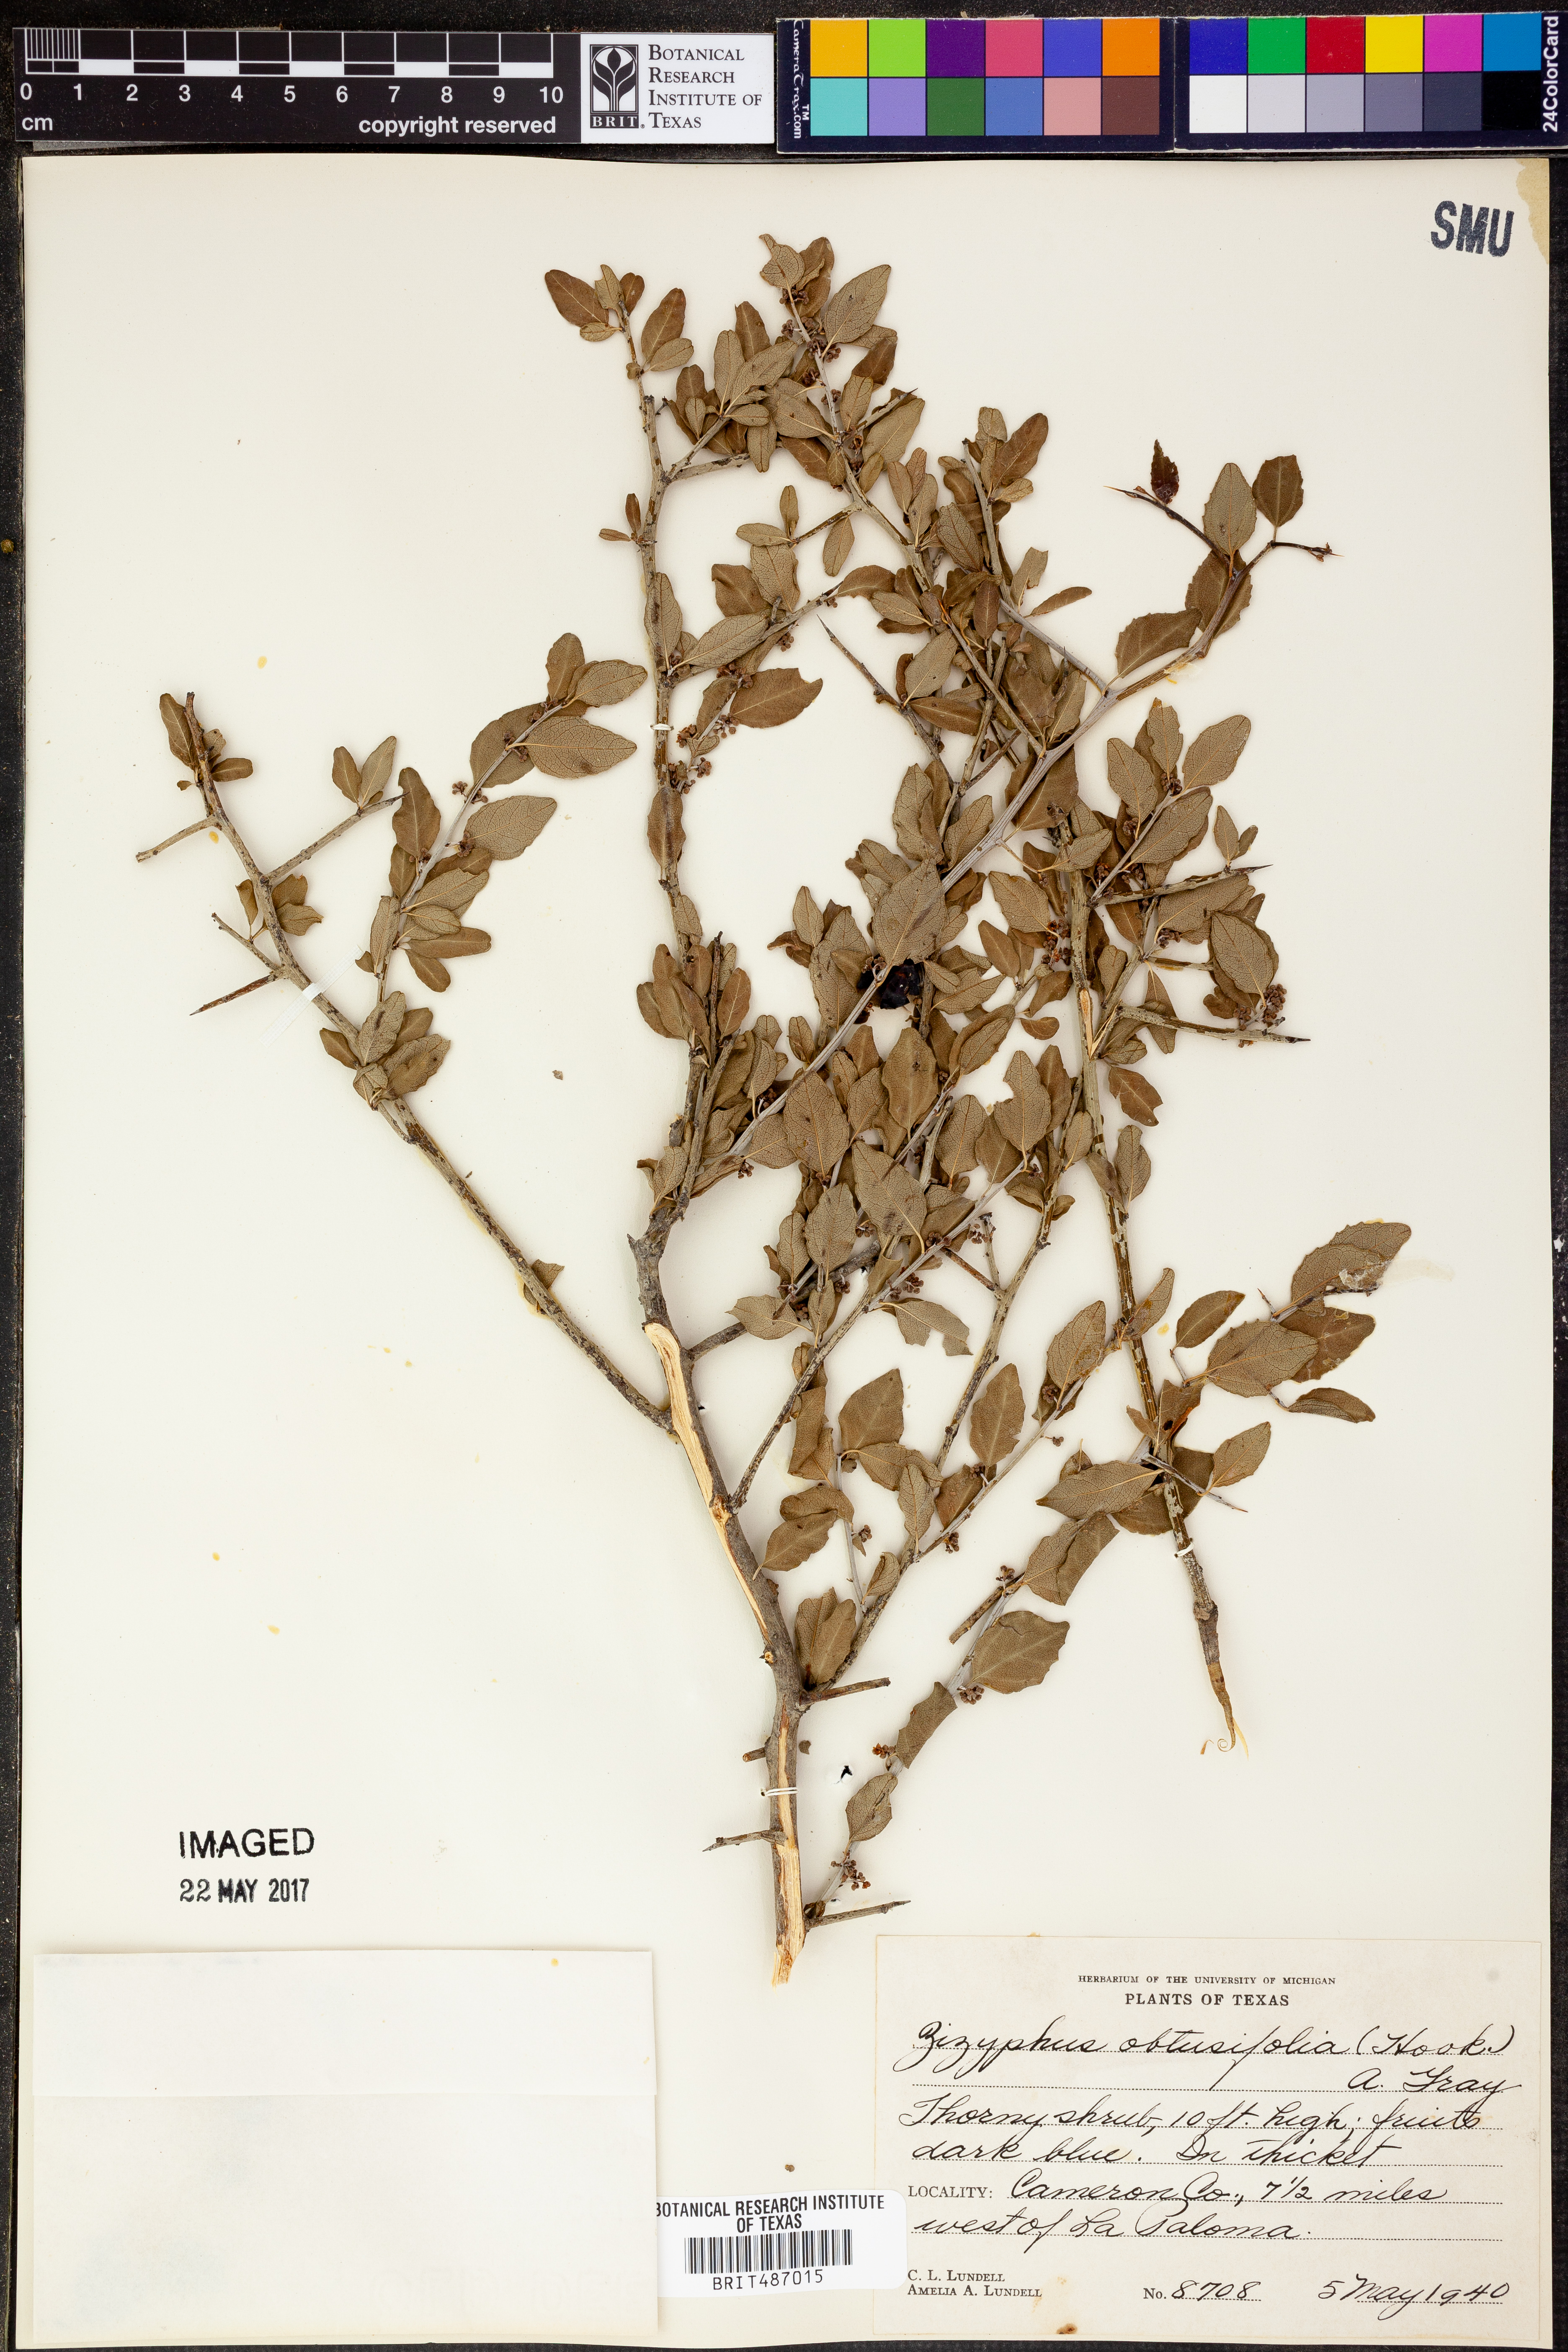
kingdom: Plantae
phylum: Tracheophyta
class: Magnoliopsida
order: Rosales
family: Rhamnaceae
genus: Sarcomphalus
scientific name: Sarcomphalus obtusifolius
